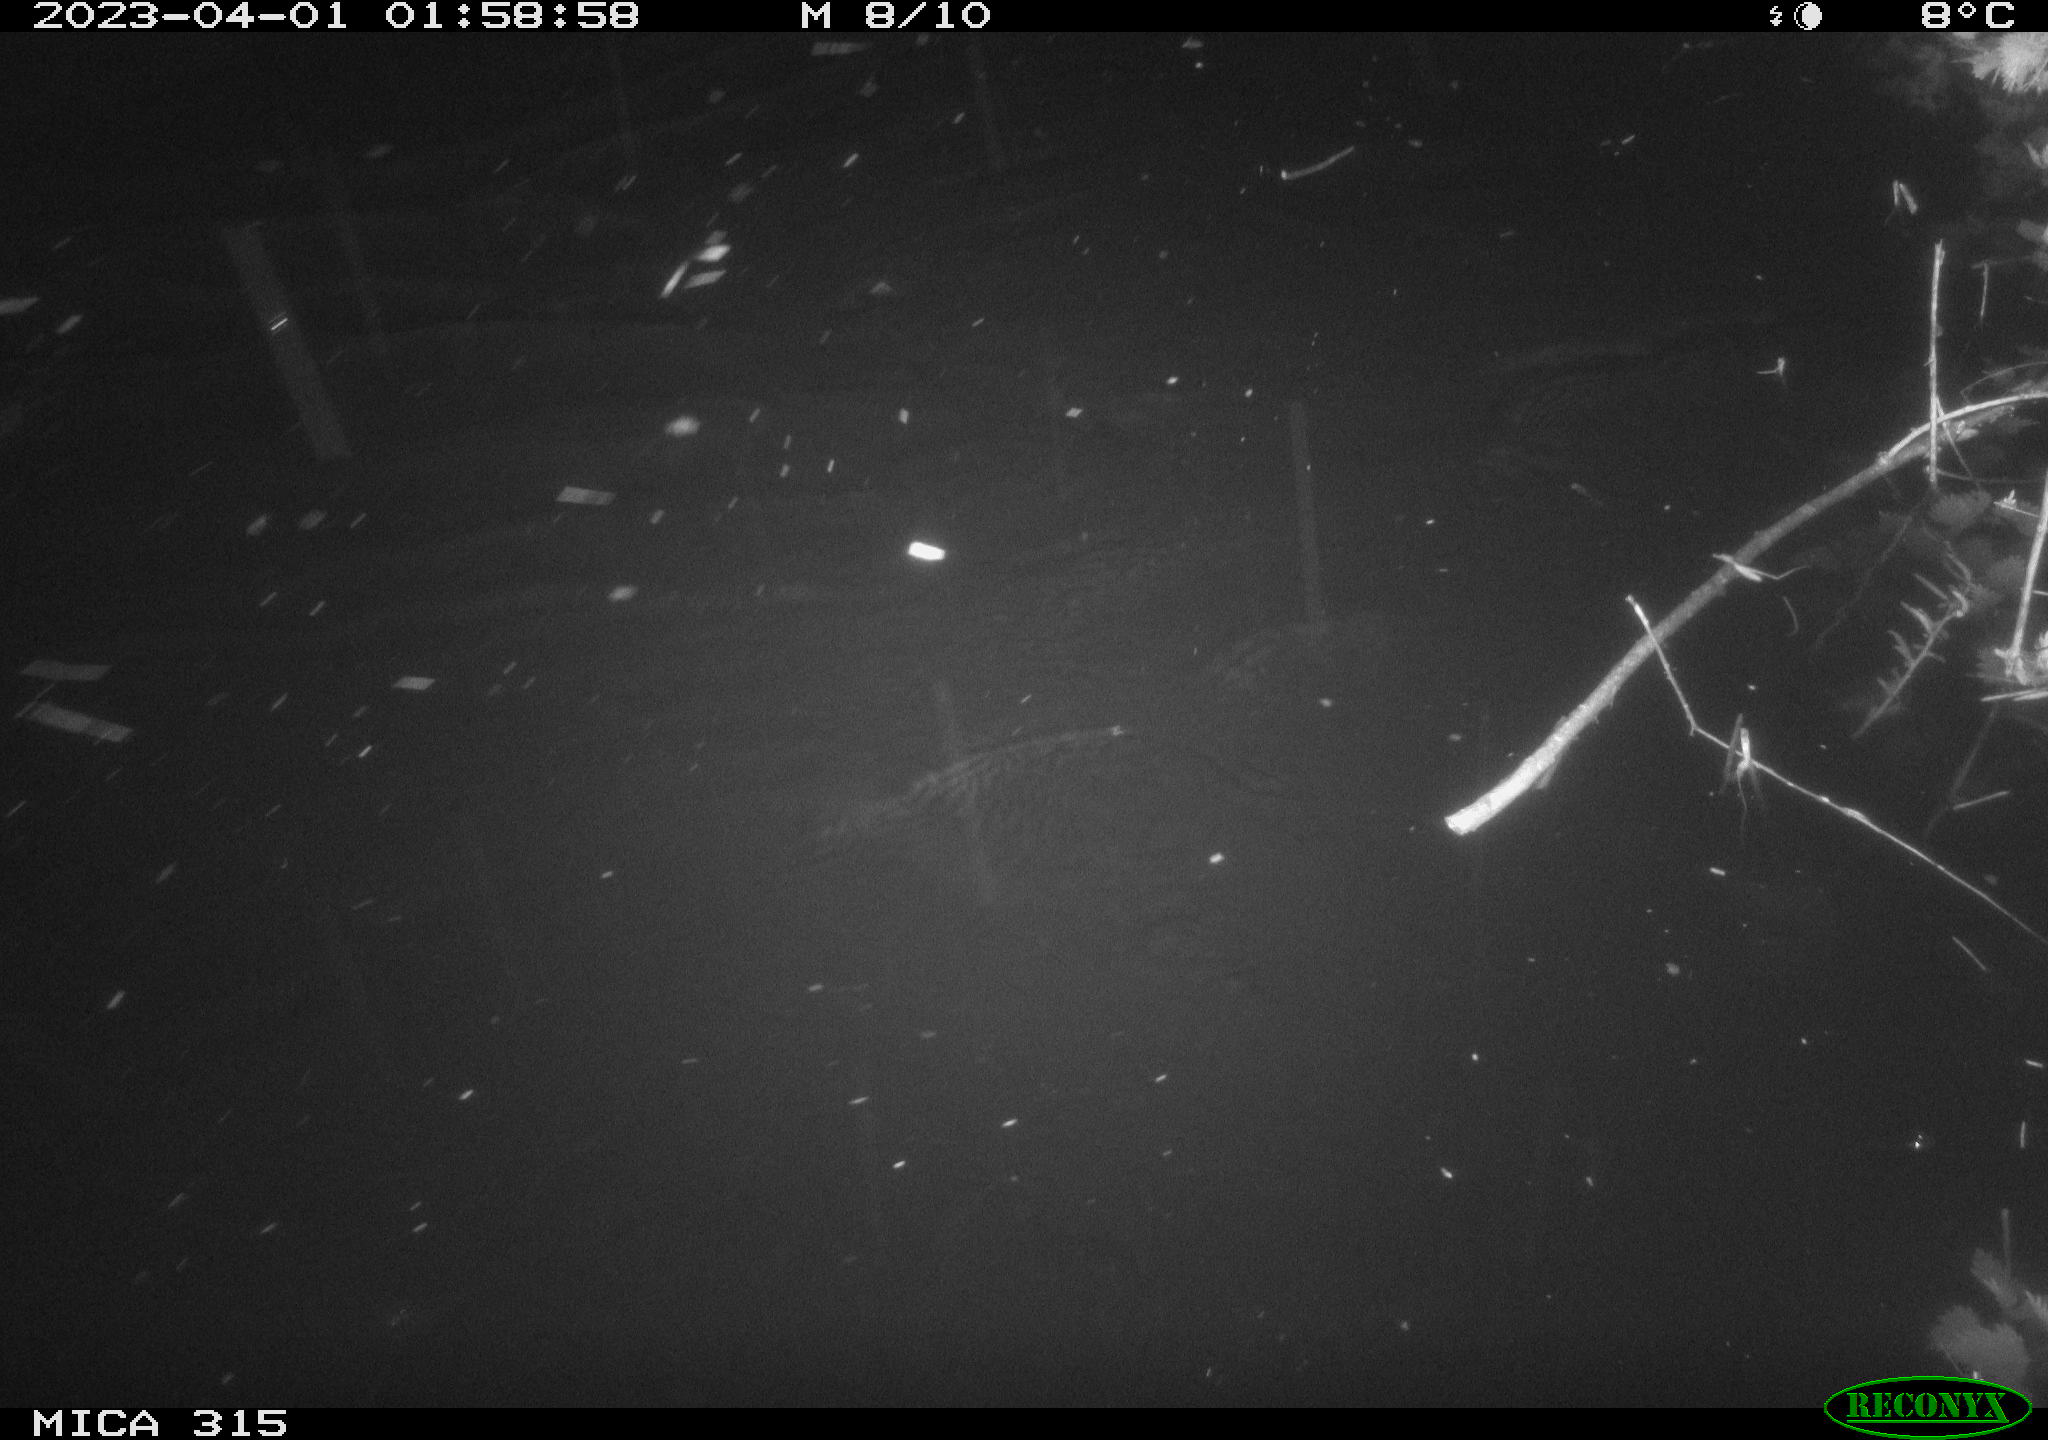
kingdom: Animalia
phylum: Chordata
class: Aves
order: Anseriformes
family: Anatidae
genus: Anas
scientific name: Anas
